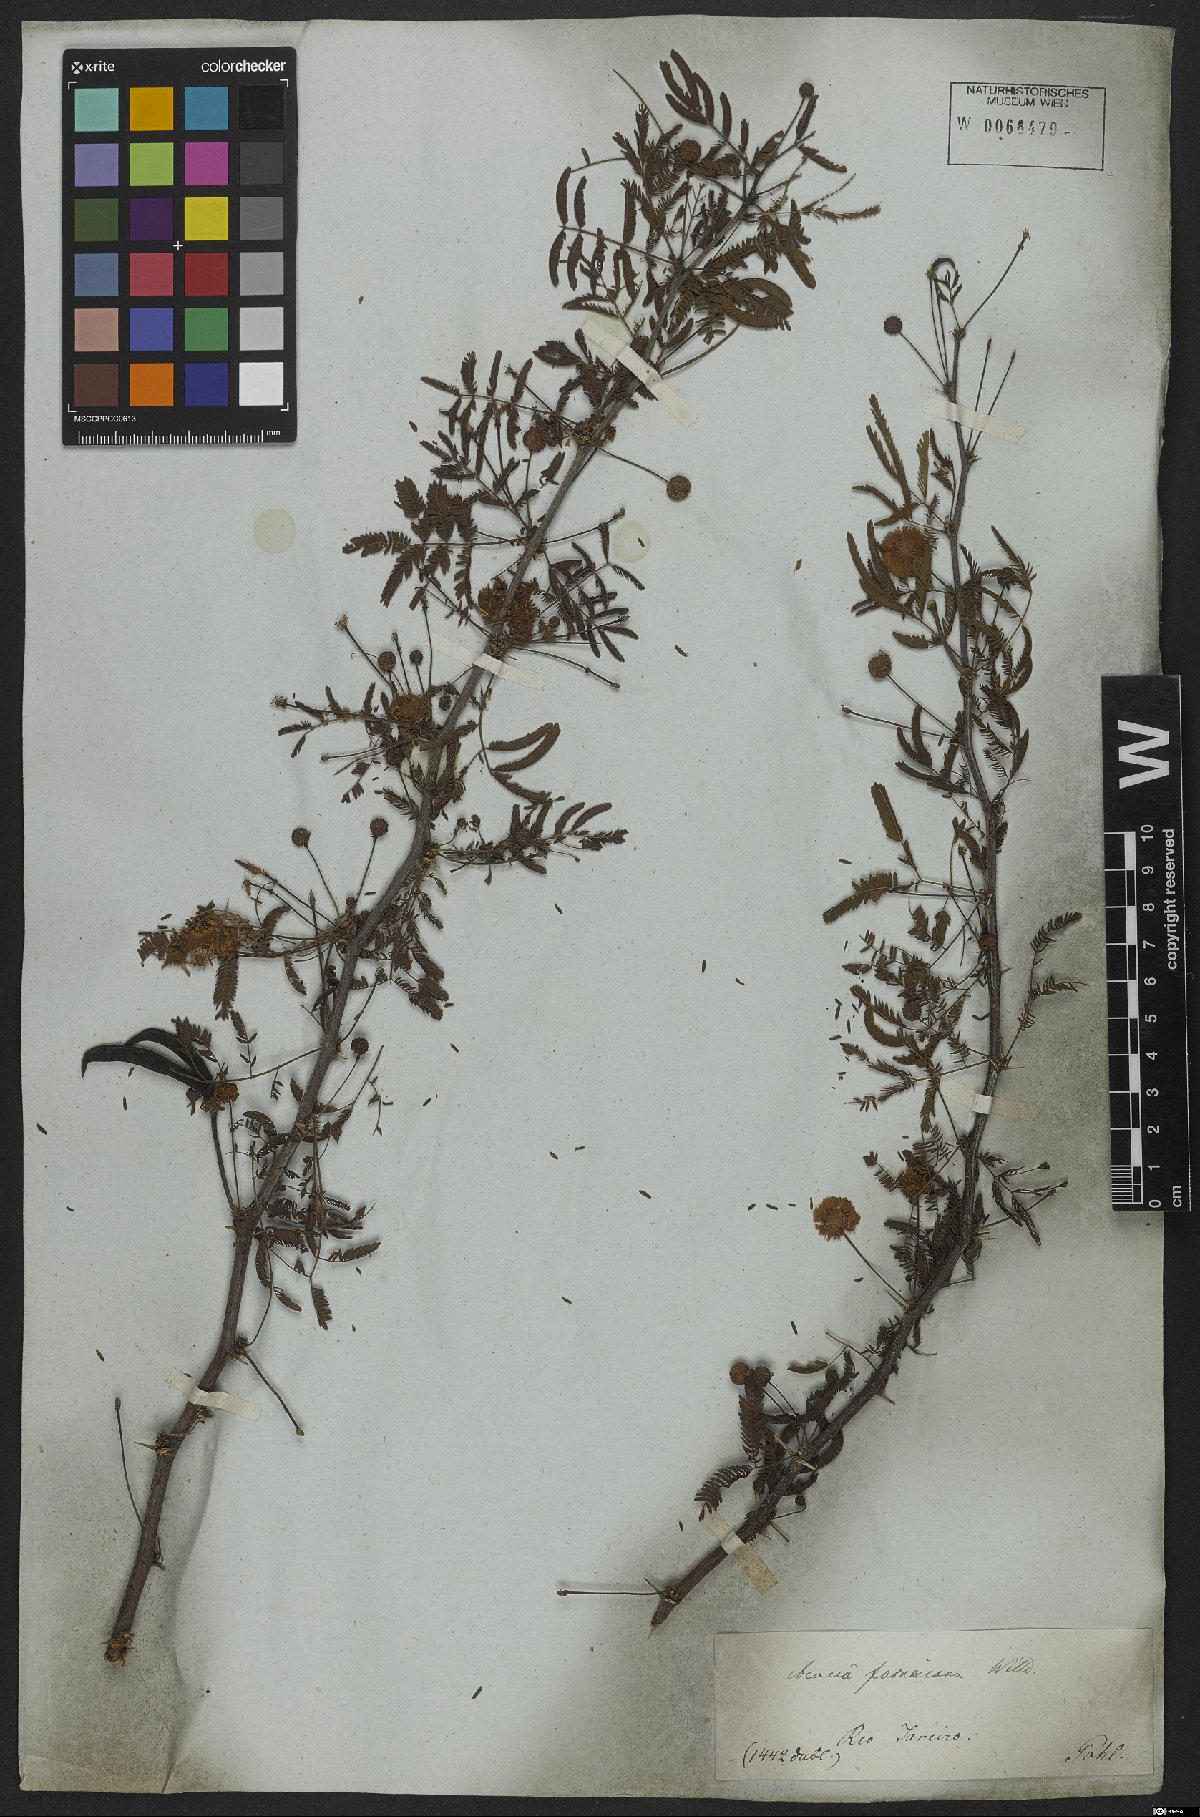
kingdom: Plantae
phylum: Tracheophyta
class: Magnoliopsida
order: Fabales
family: Fabaceae
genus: Vachellia
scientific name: Vachellia farnesiana
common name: Sweet acacia
